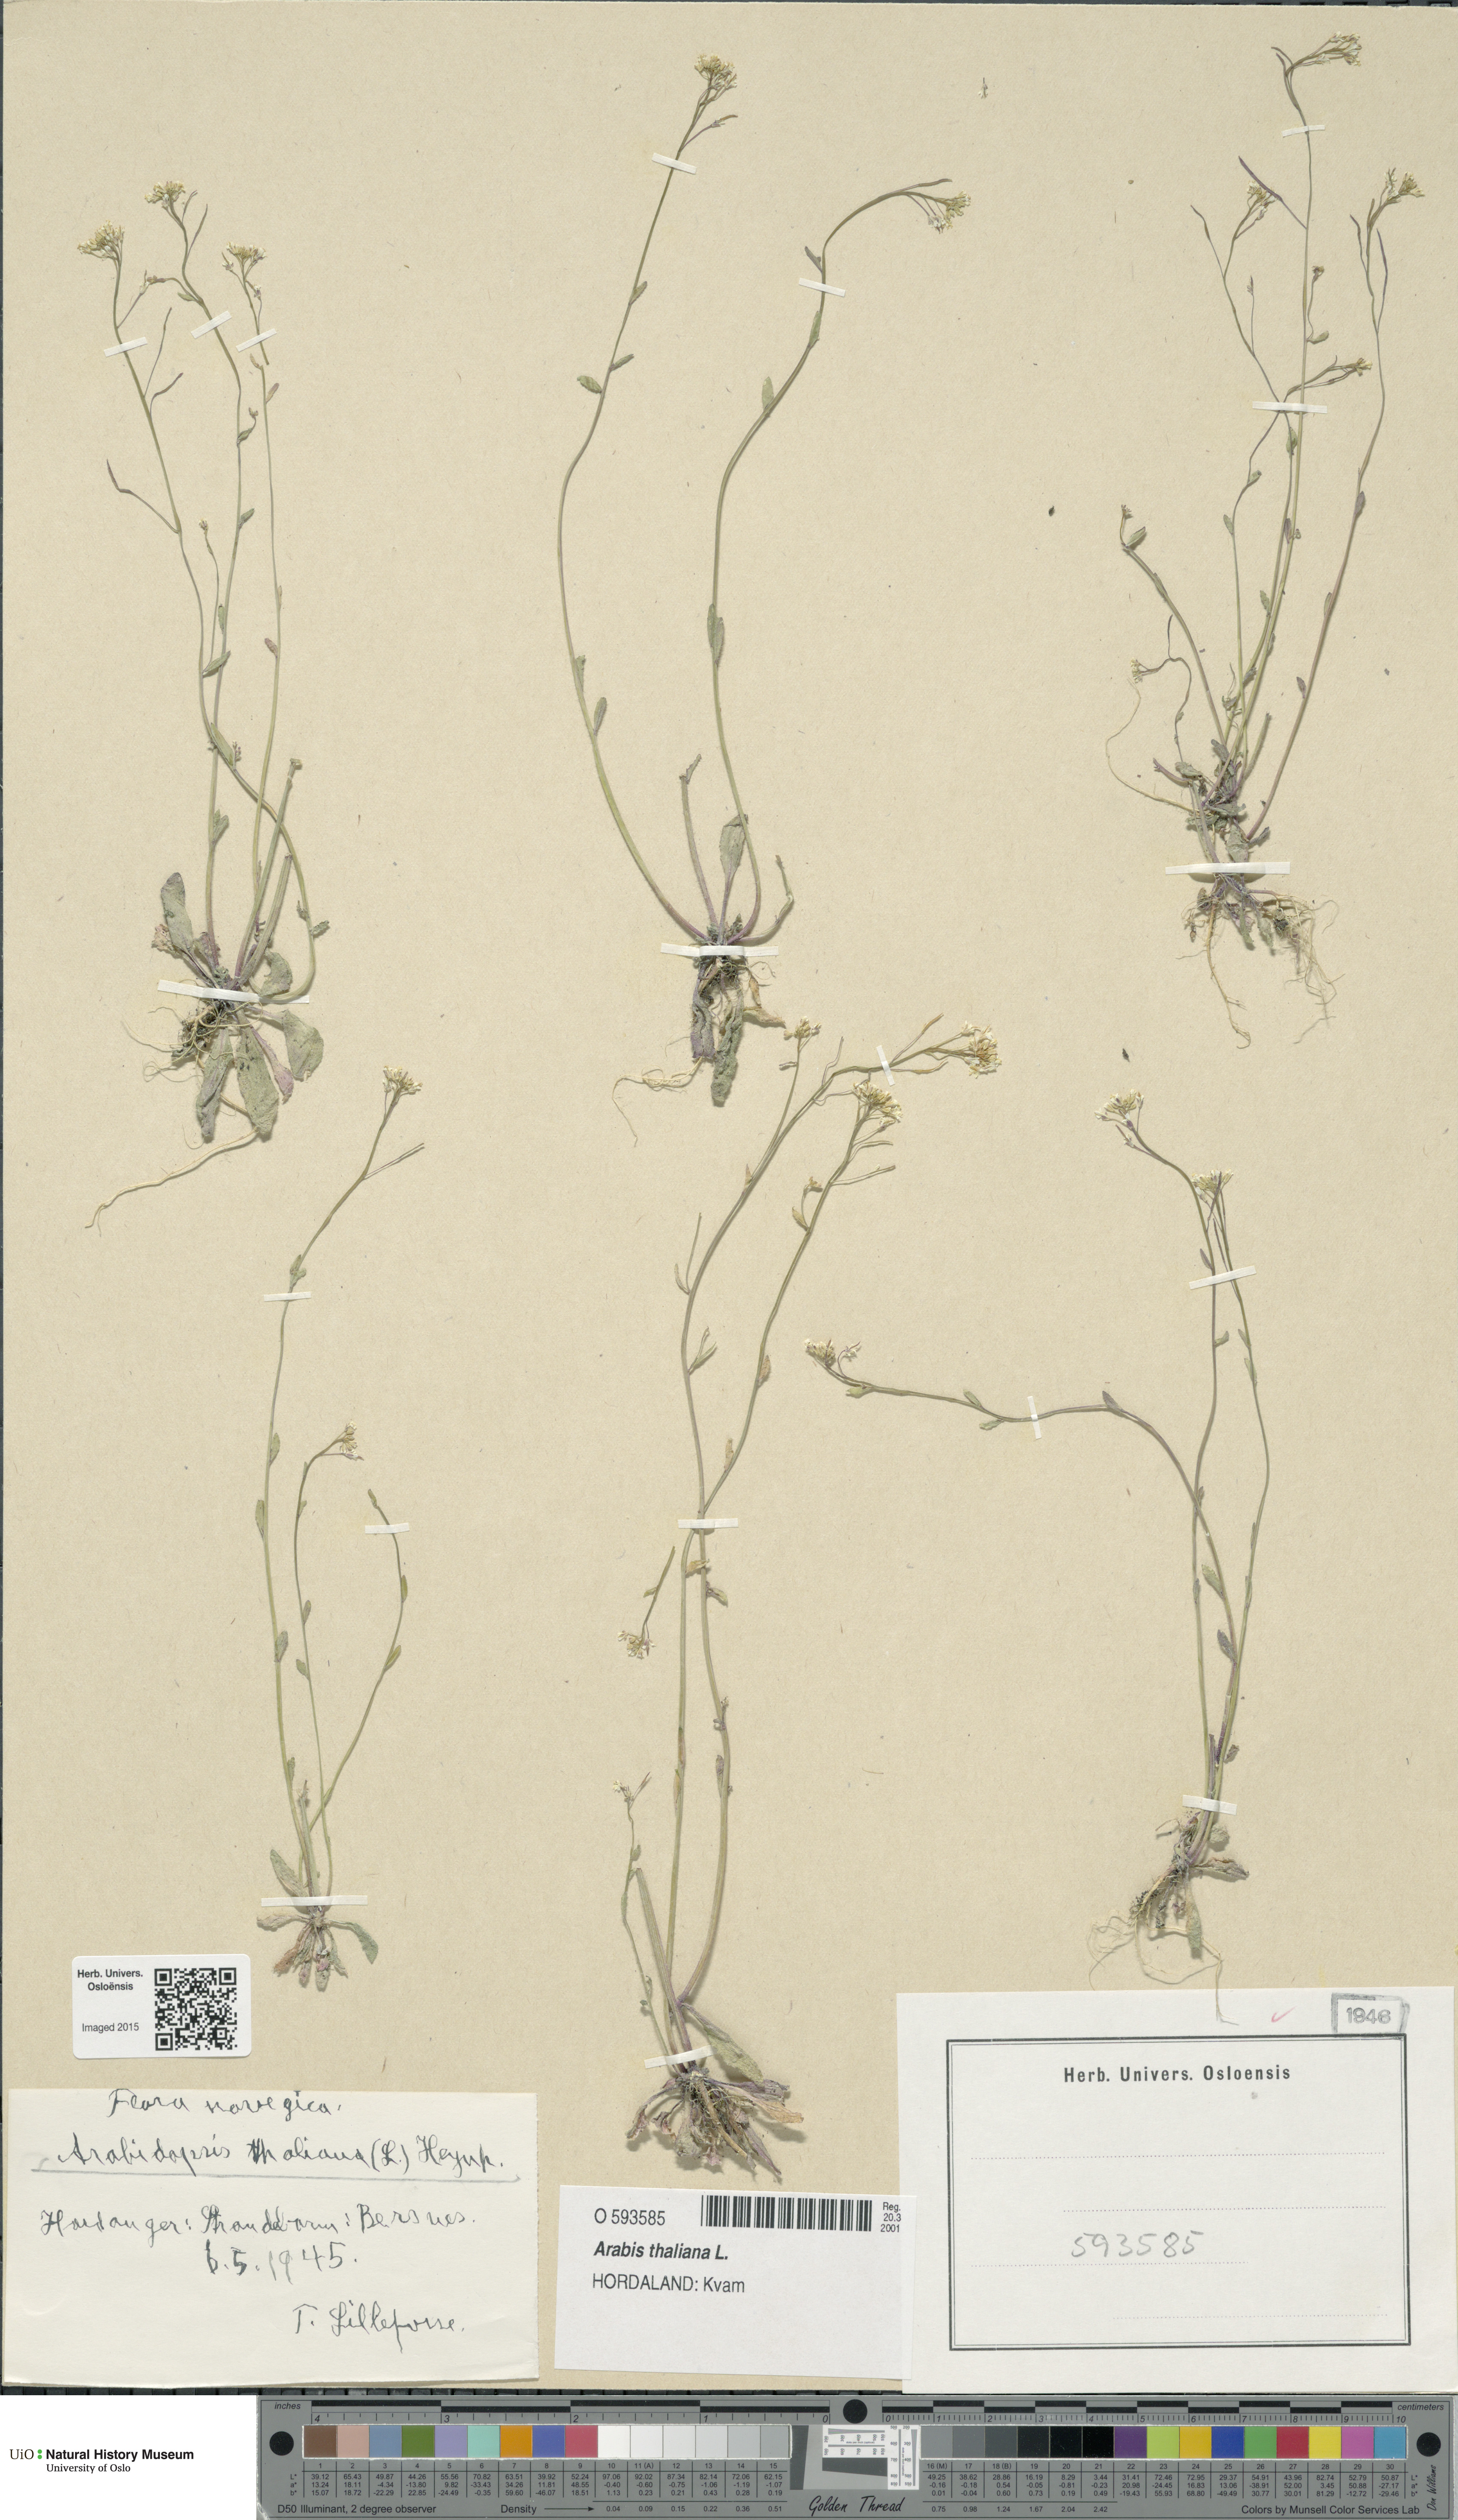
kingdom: Plantae
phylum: Tracheophyta
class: Magnoliopsida
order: Brassicales
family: Brassicaceae
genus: Arabidopsis
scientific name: Arabidopsis thaliana
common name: Thale cress
